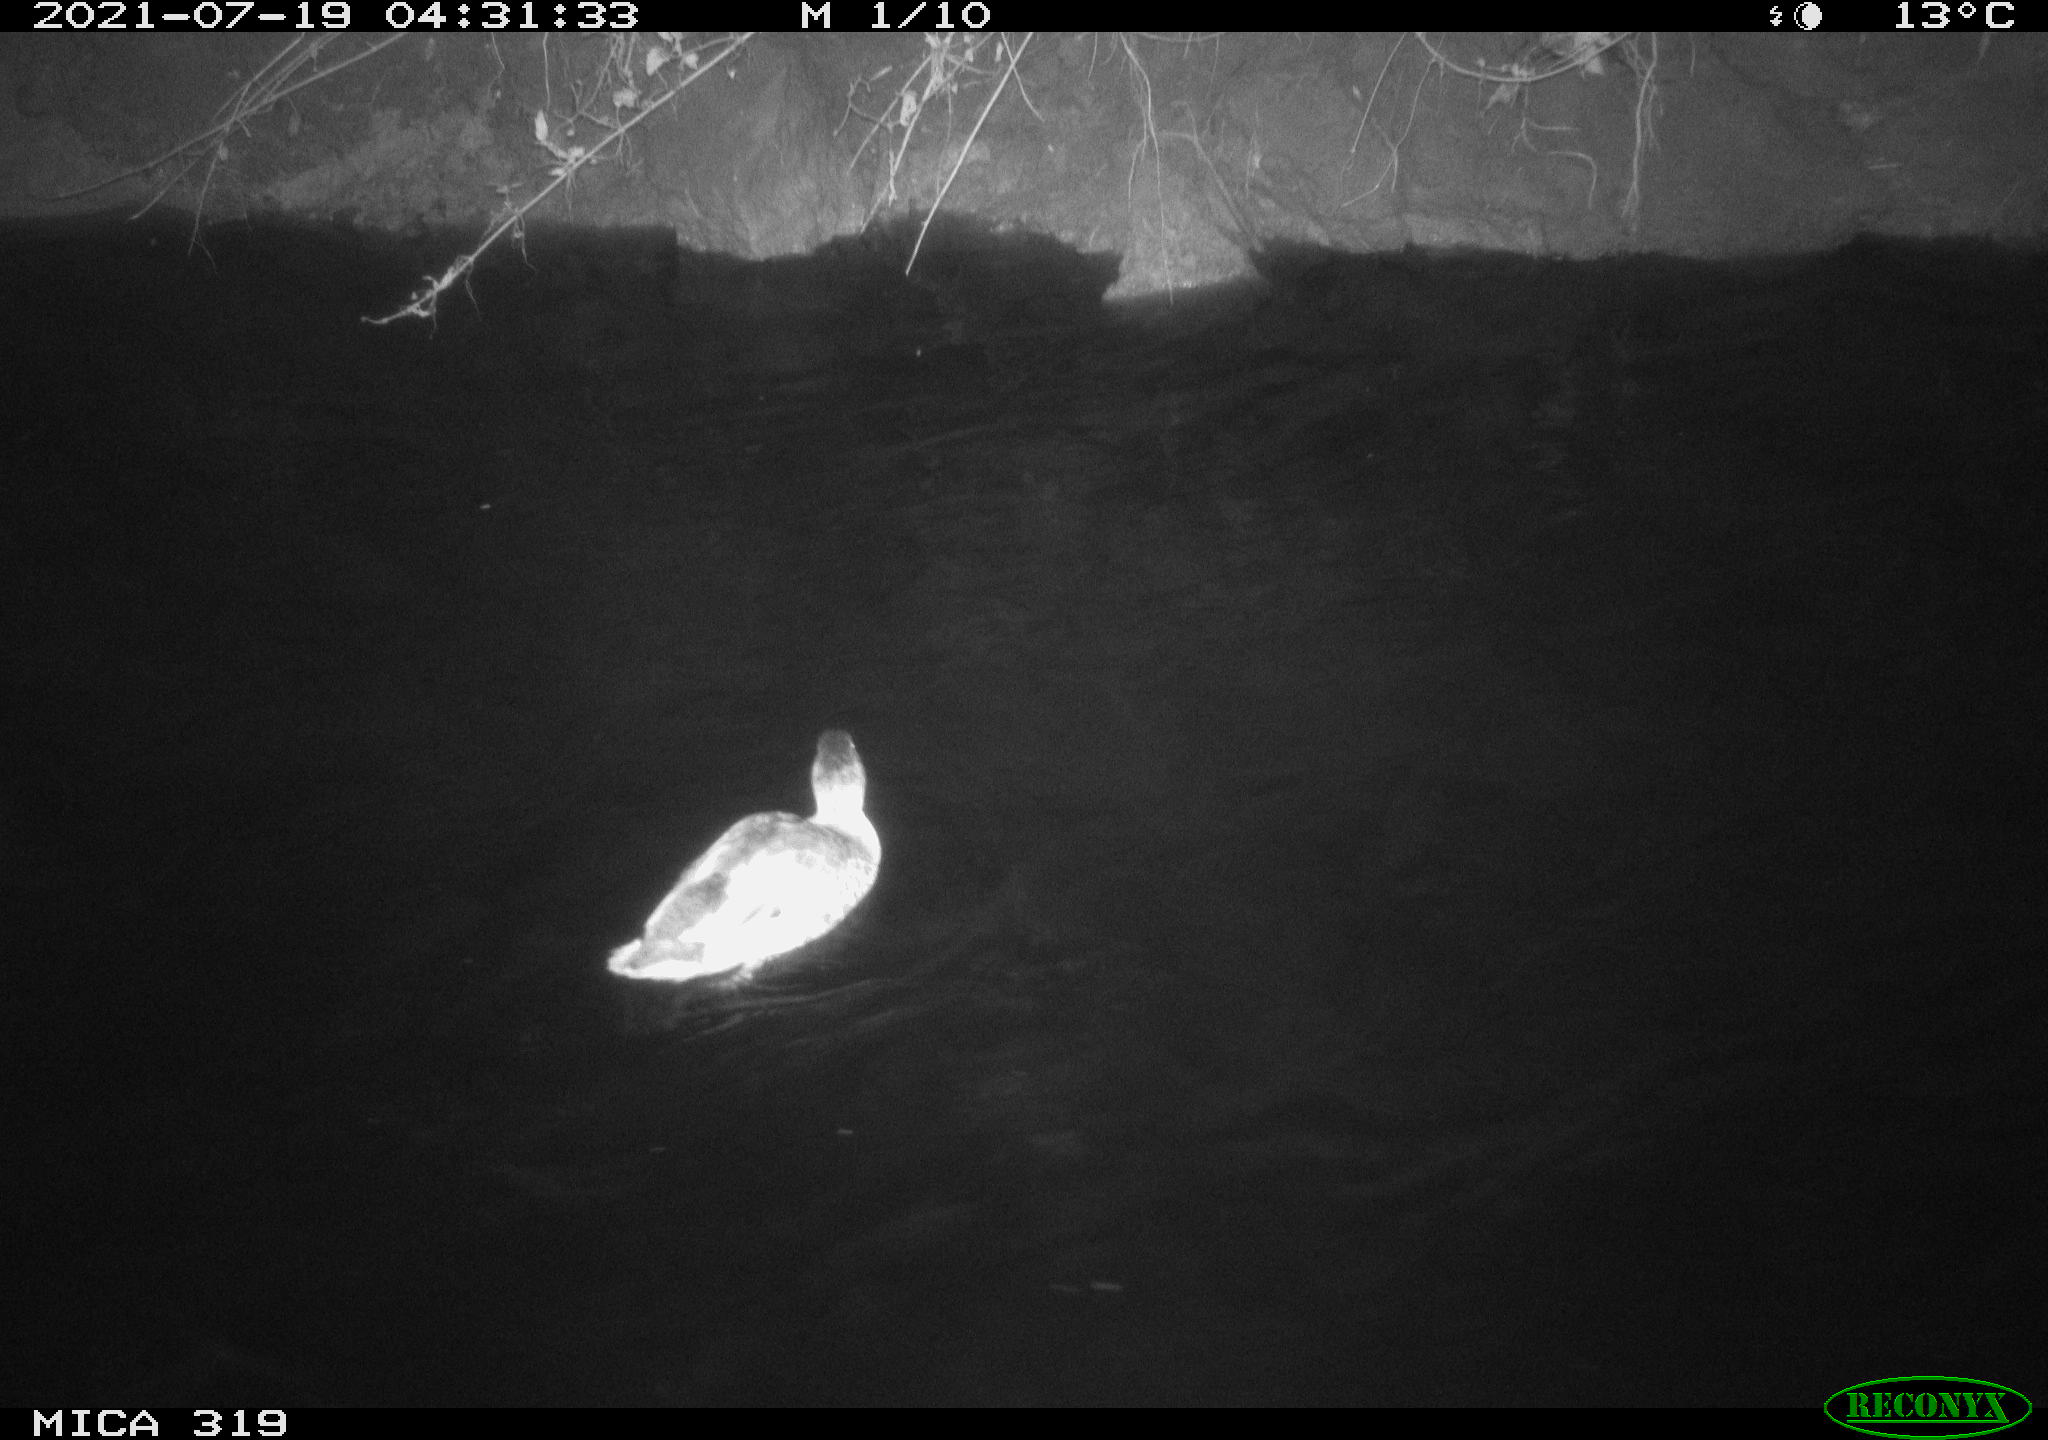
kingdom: Animalia
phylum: Chordata
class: Aves
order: Anseriformes
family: Anatidae
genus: Anas
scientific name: Anas platyrhynchos
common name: Mallard
